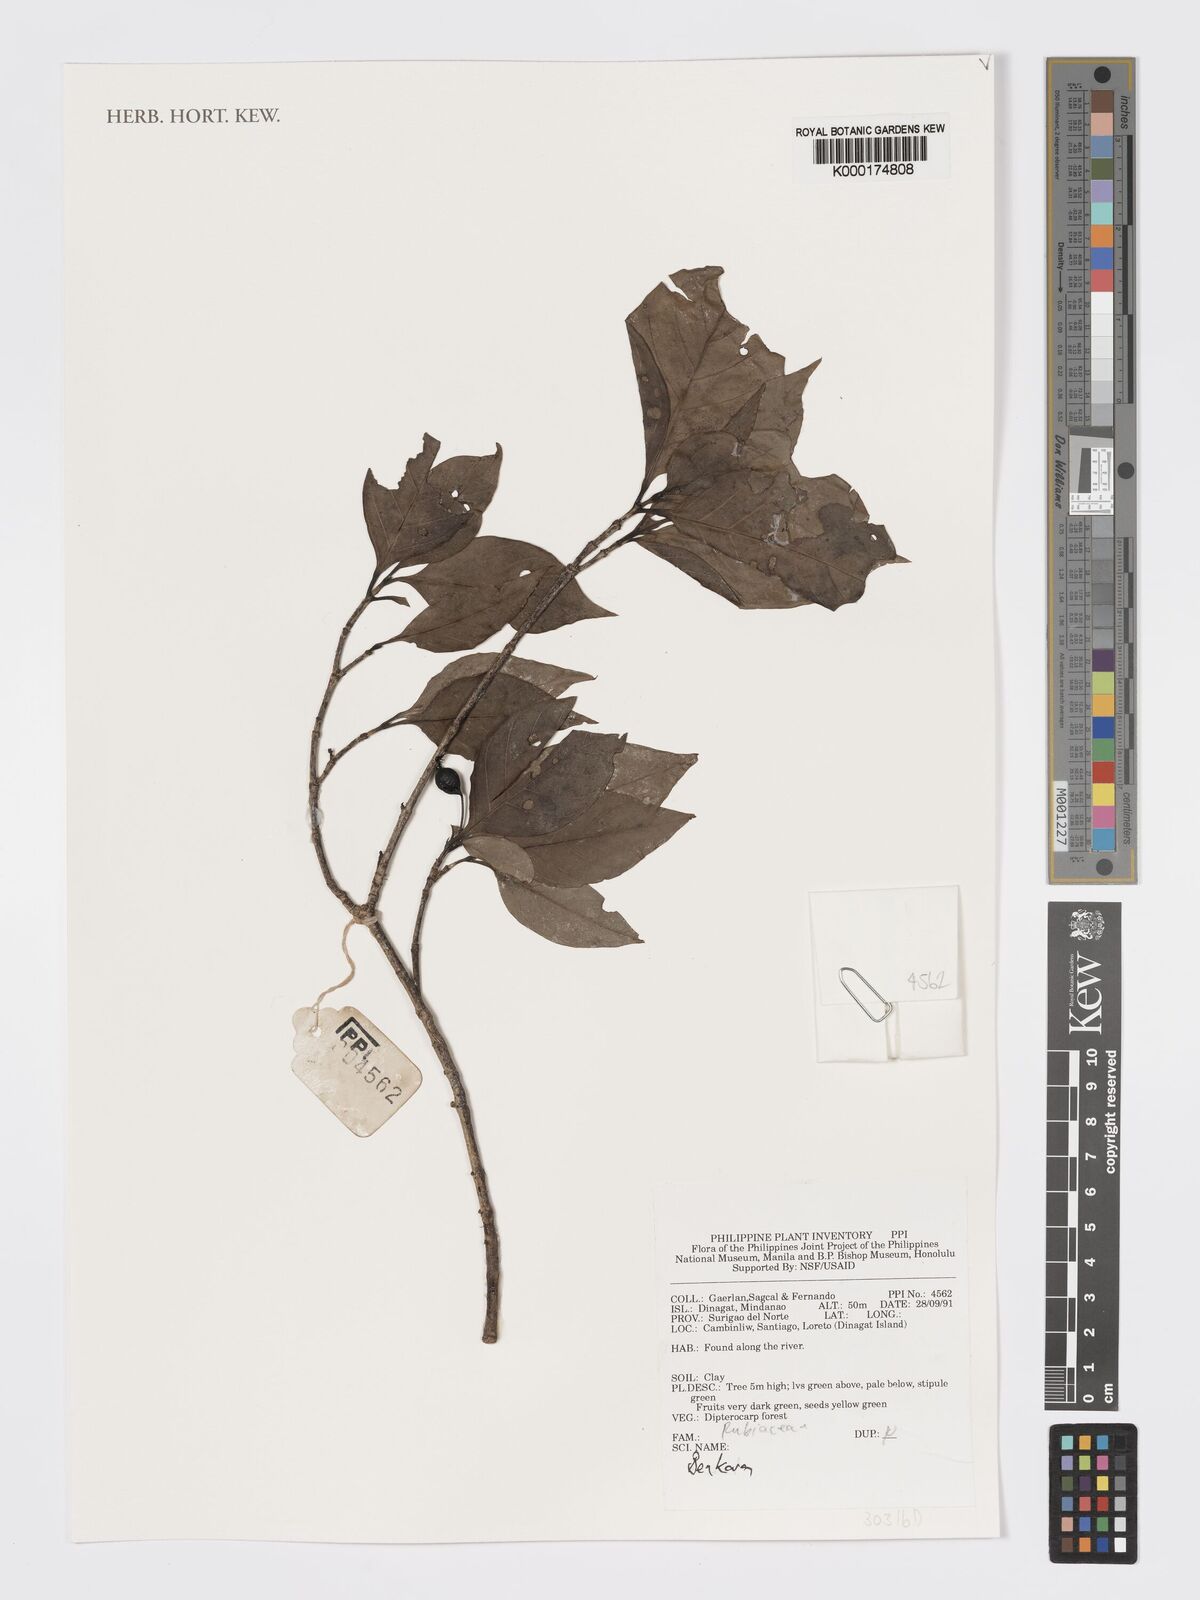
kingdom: Plantae
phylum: Tracheophyta
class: Magnoliopsida
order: Gentianales
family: Rubiaceae
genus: Benkara
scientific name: Benkara
